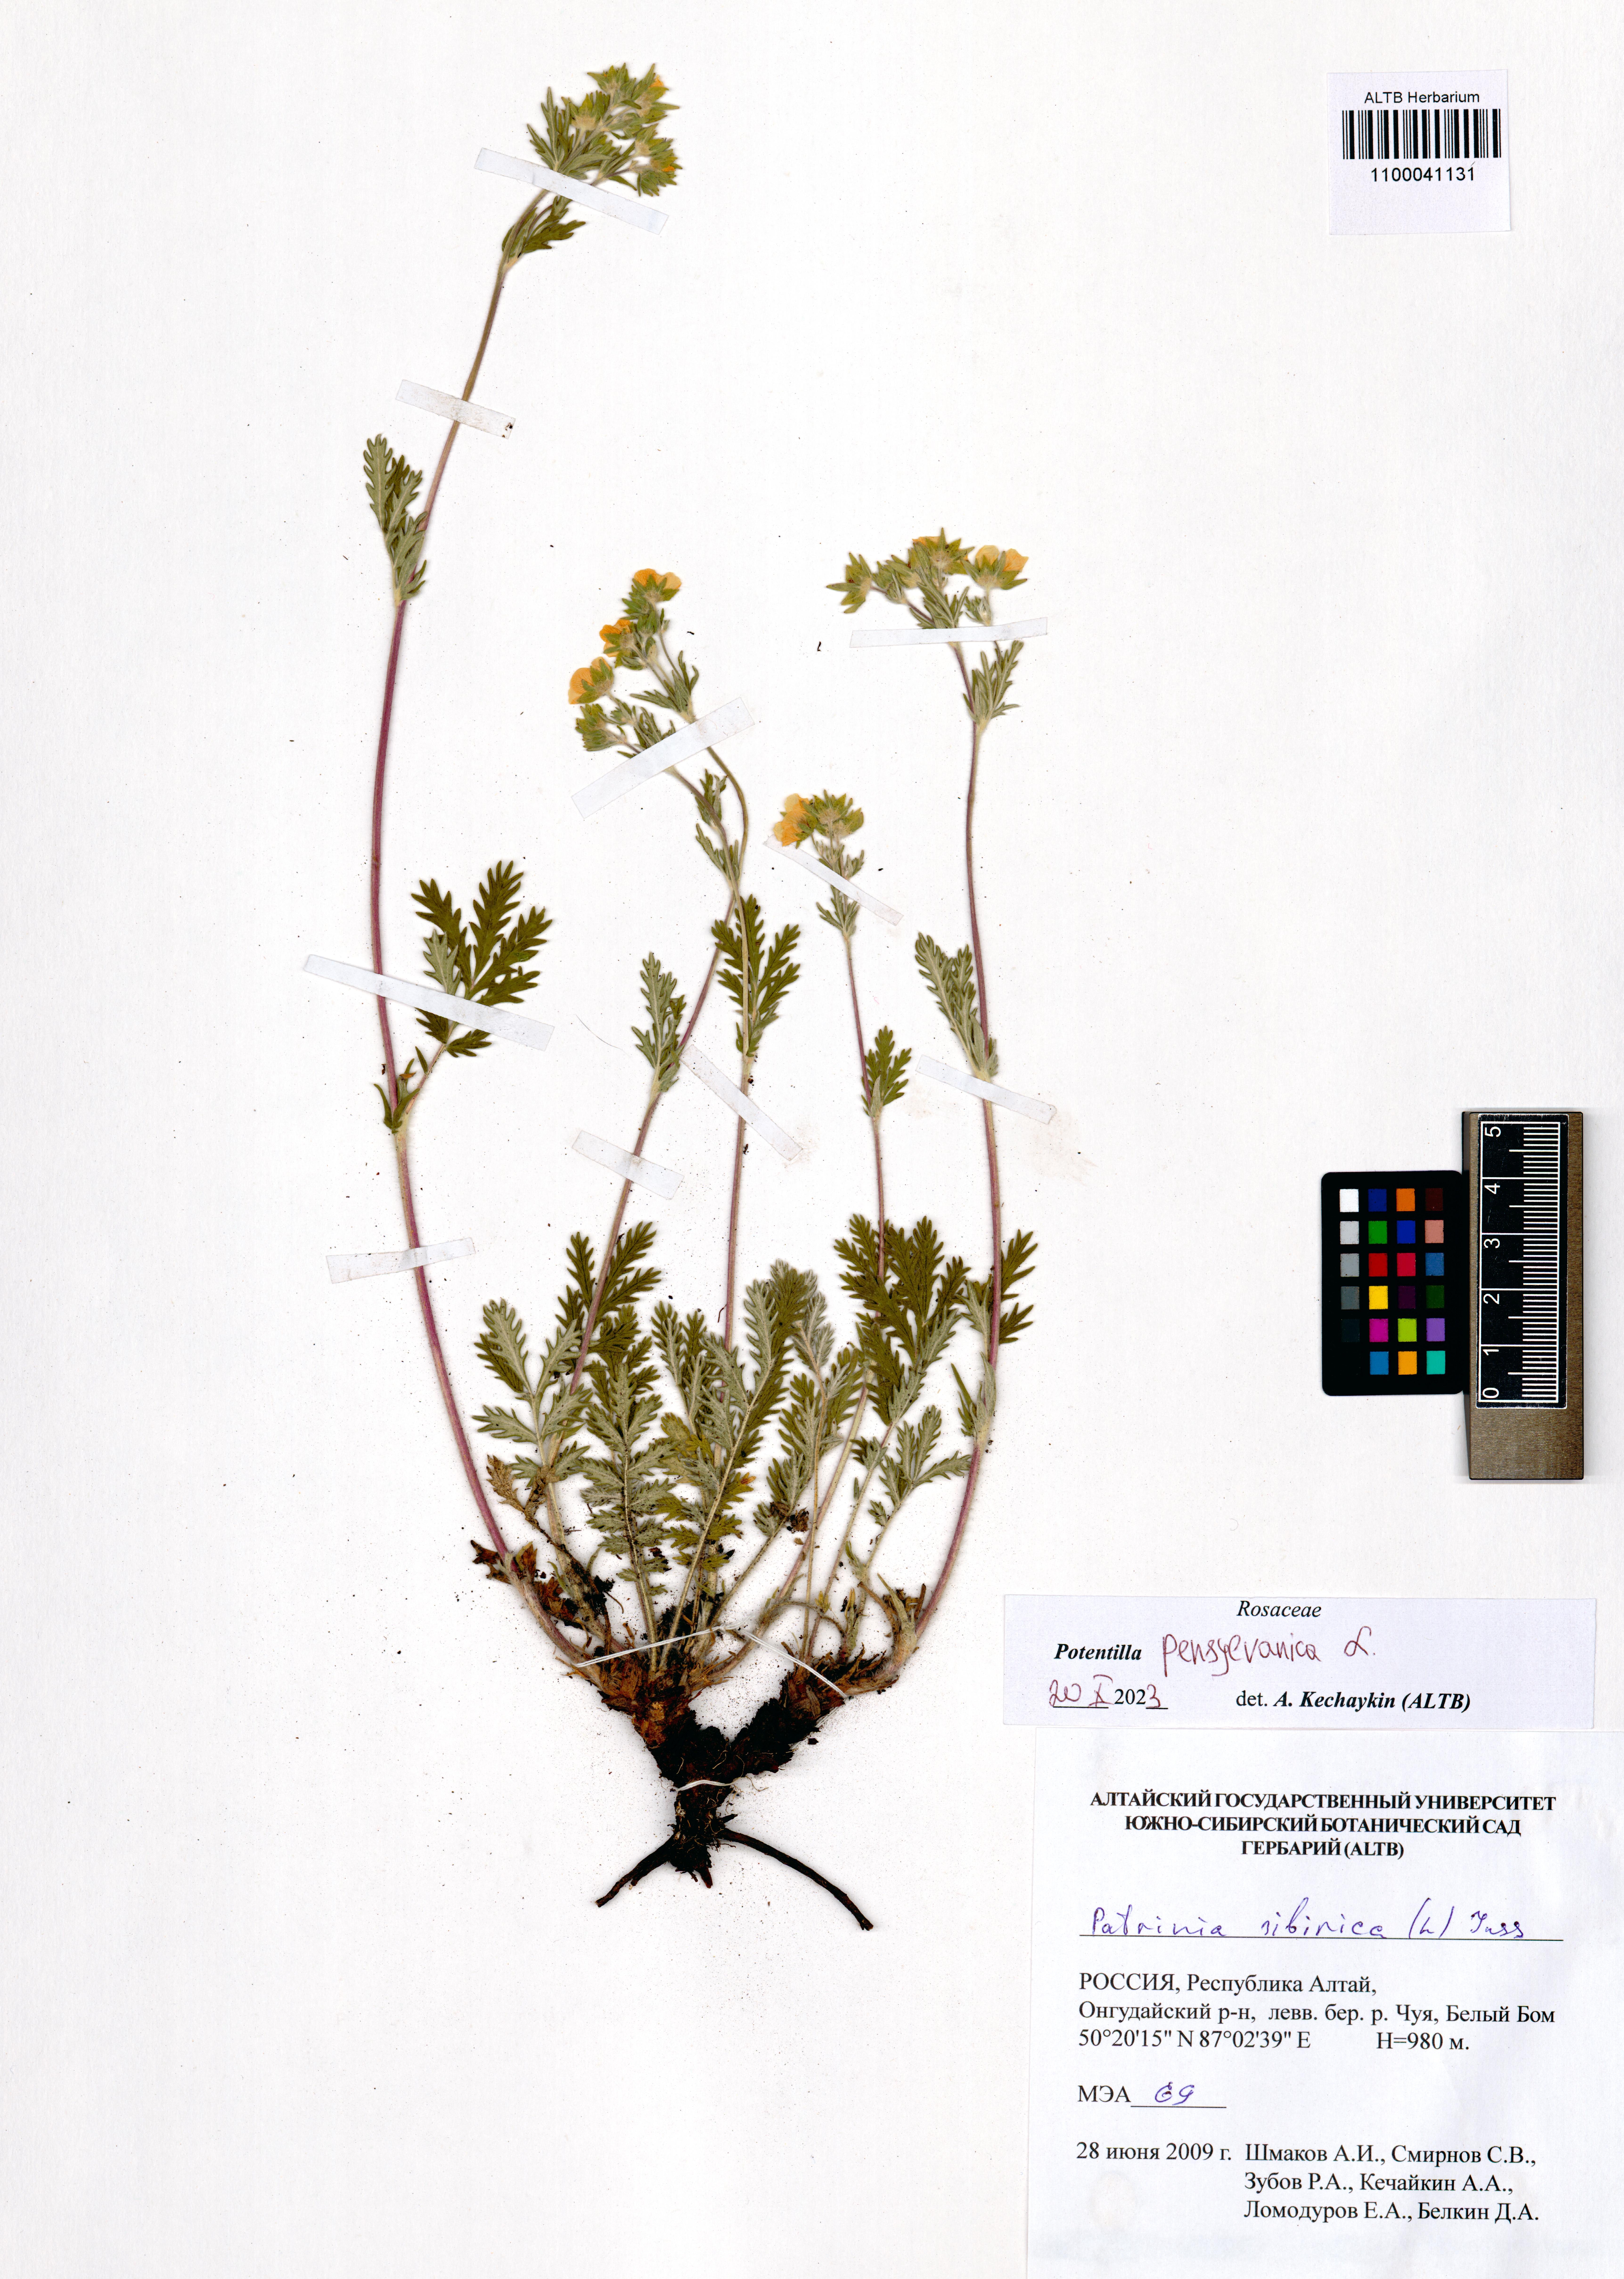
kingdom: Plantae
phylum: Tracheophyta
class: Magnoliopsida
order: Rosales
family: Rosaceae
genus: Potentilla
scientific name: Potentilla pensylvanica
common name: Pennsylvania cinquefoil
